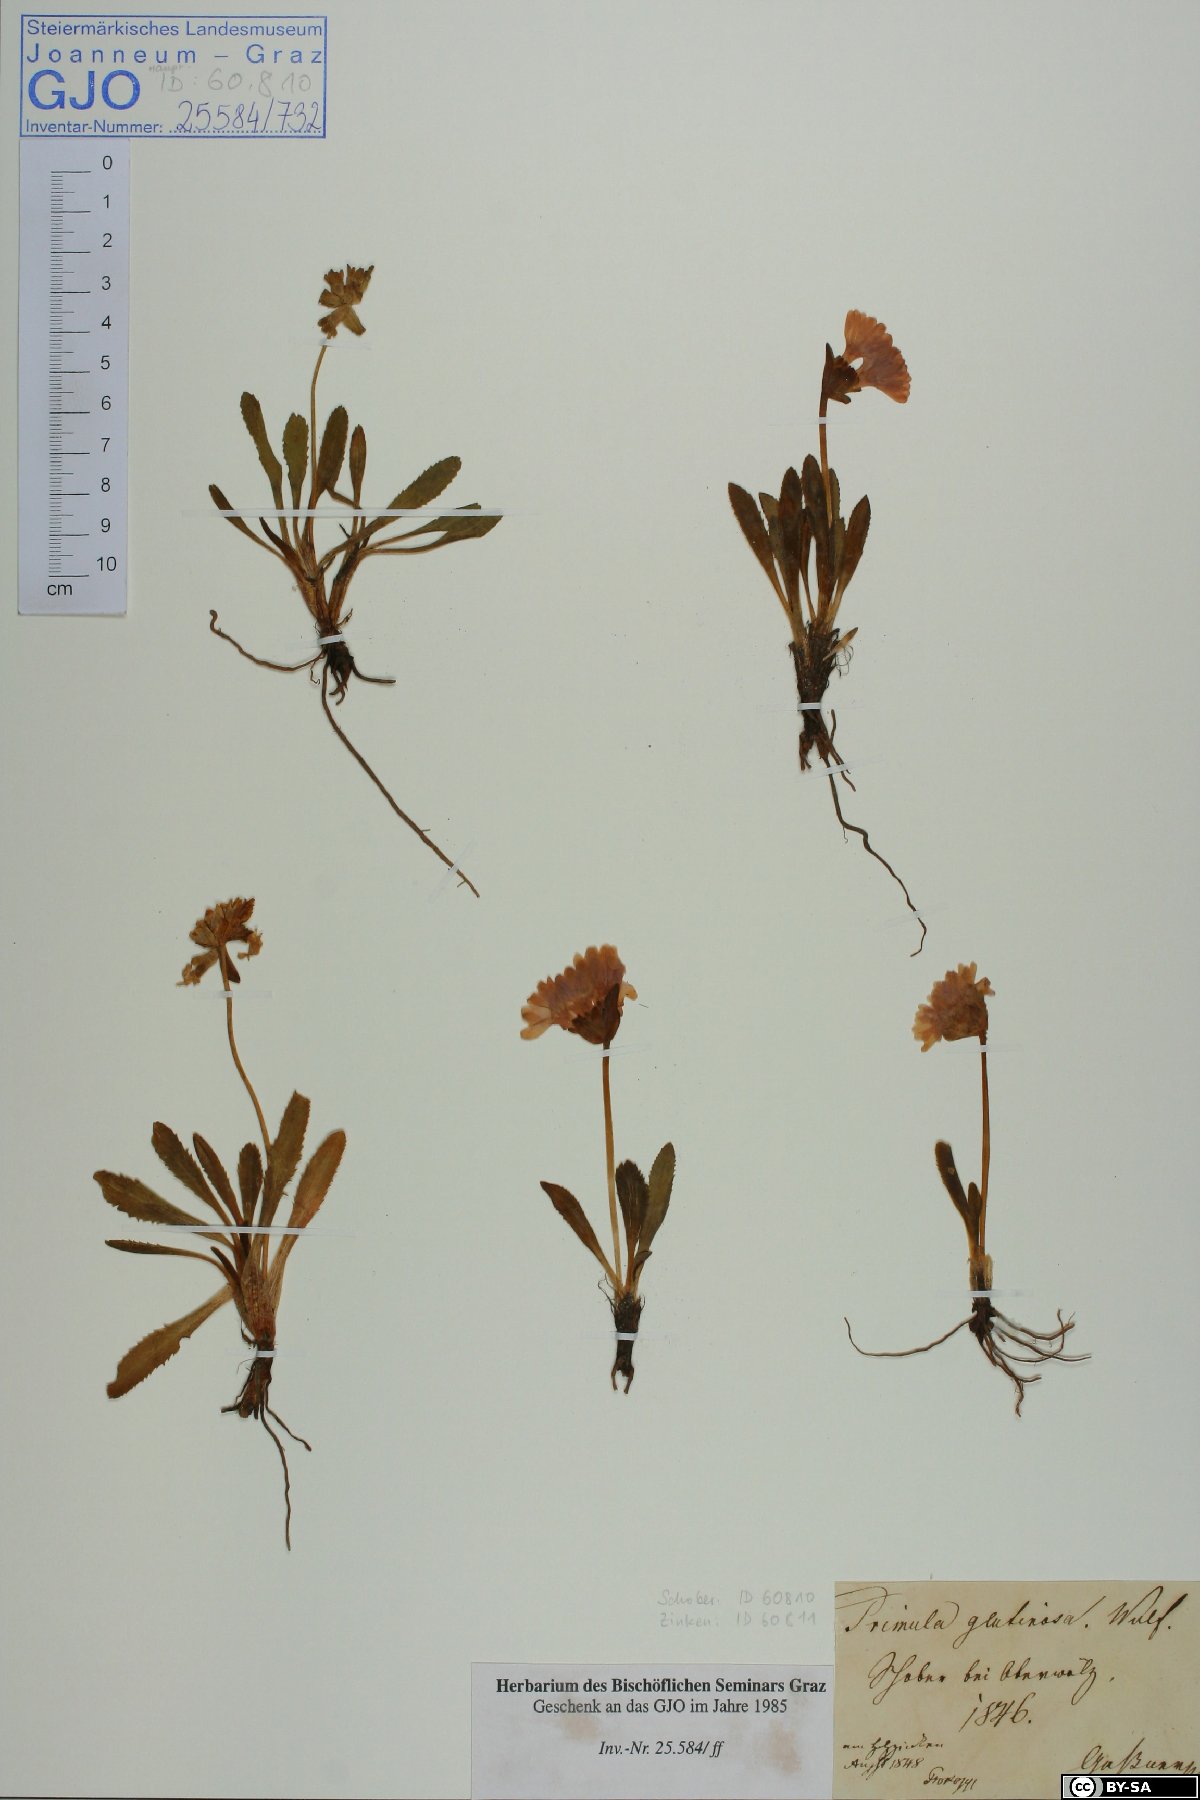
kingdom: Plantae
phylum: Tracheophyta
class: Magnoliopsida
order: Ericales
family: Primulaceae
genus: Primula
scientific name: Primula glutinosa
